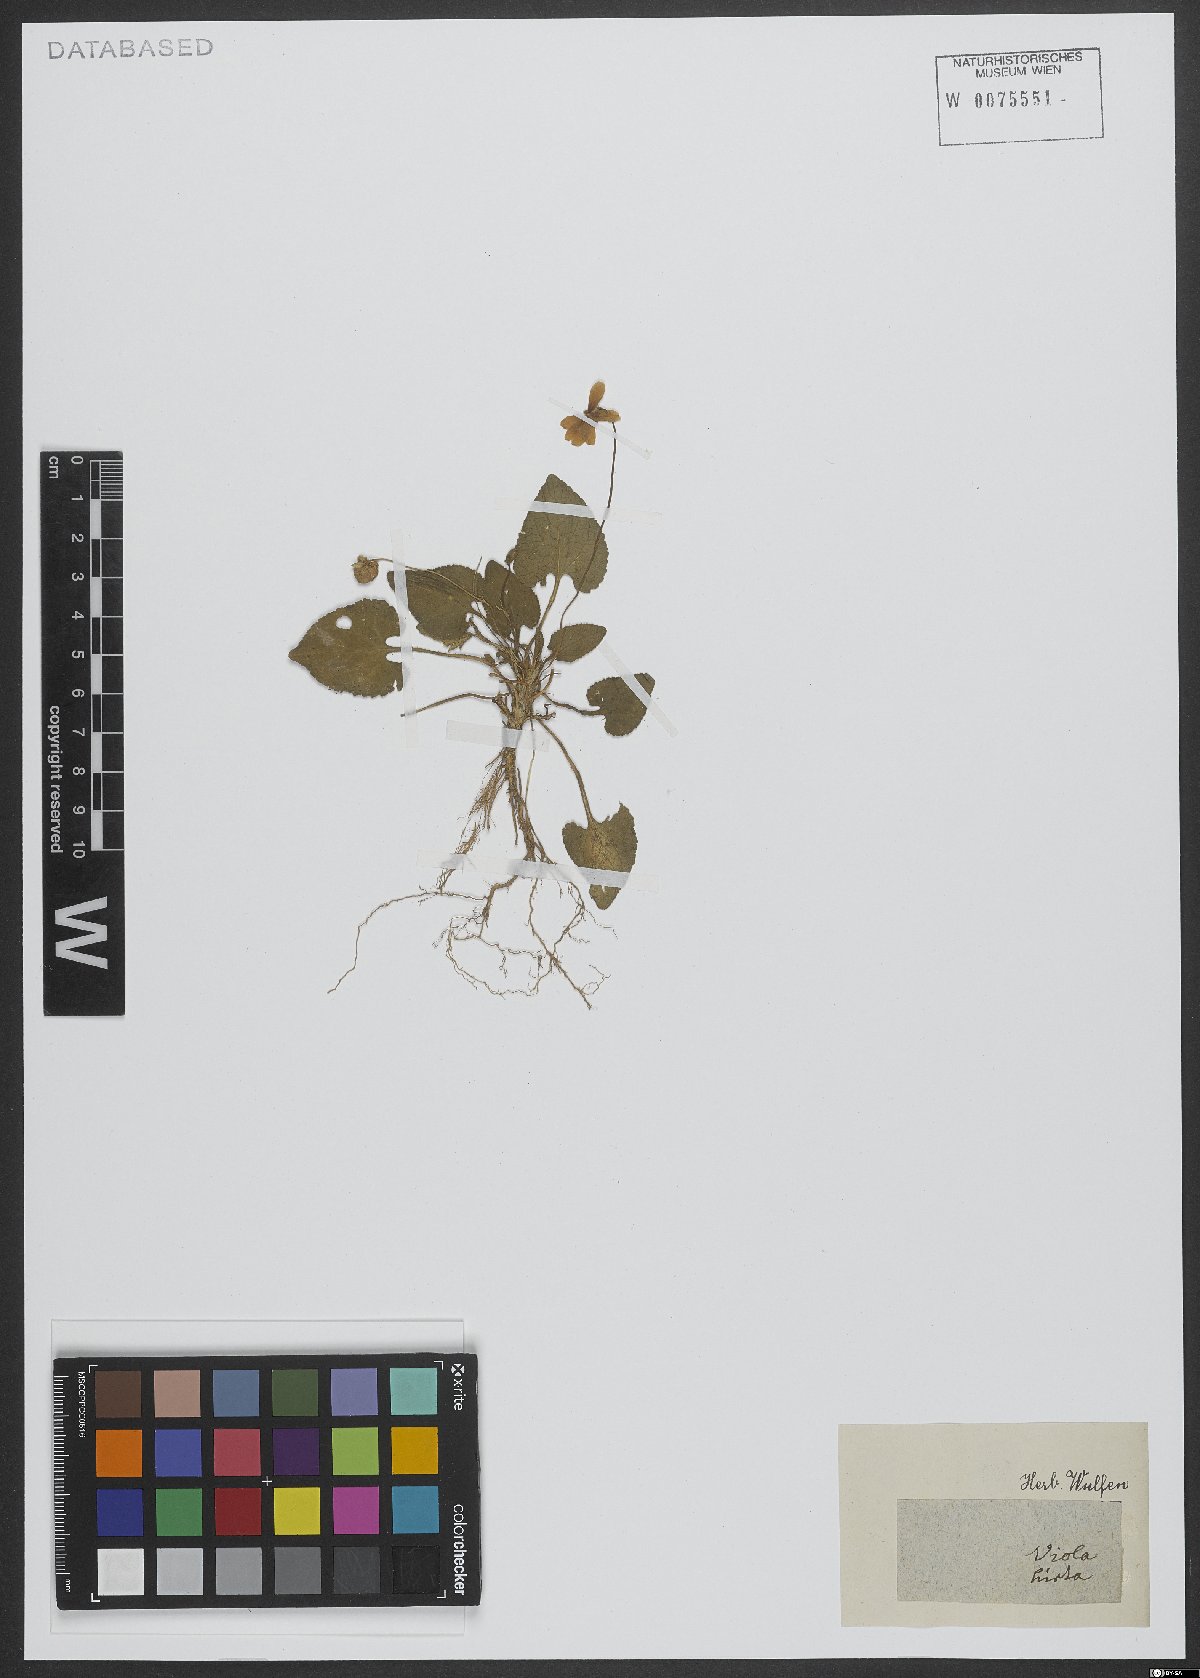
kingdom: Plantae
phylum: Tracheophyta
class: Magnoliopsida
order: Malpighiales
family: Violaceae
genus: Viola
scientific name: Viola hirta
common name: Hairy violet
